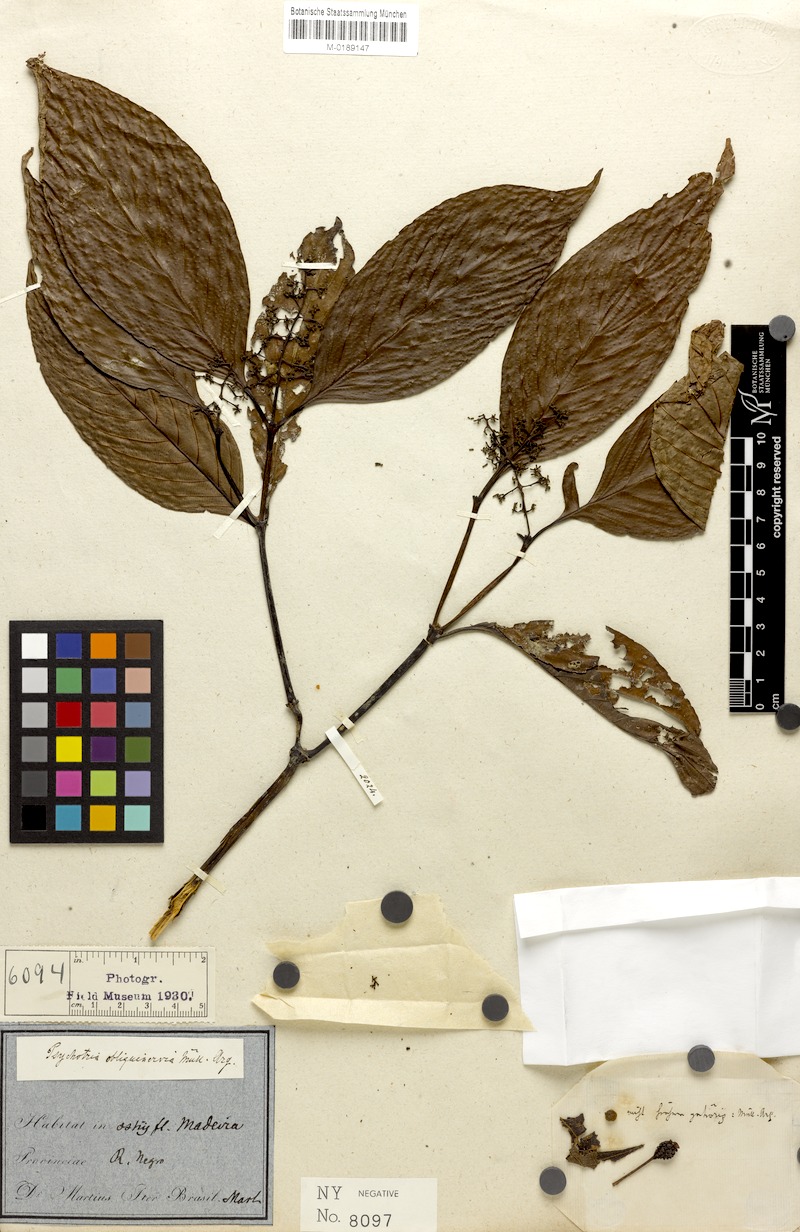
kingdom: Plantae
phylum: Tracheophyta
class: Magnoliopsida
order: Gentianales
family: Rubiaceae
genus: Palicourea
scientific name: Palicourea obliquinervia
